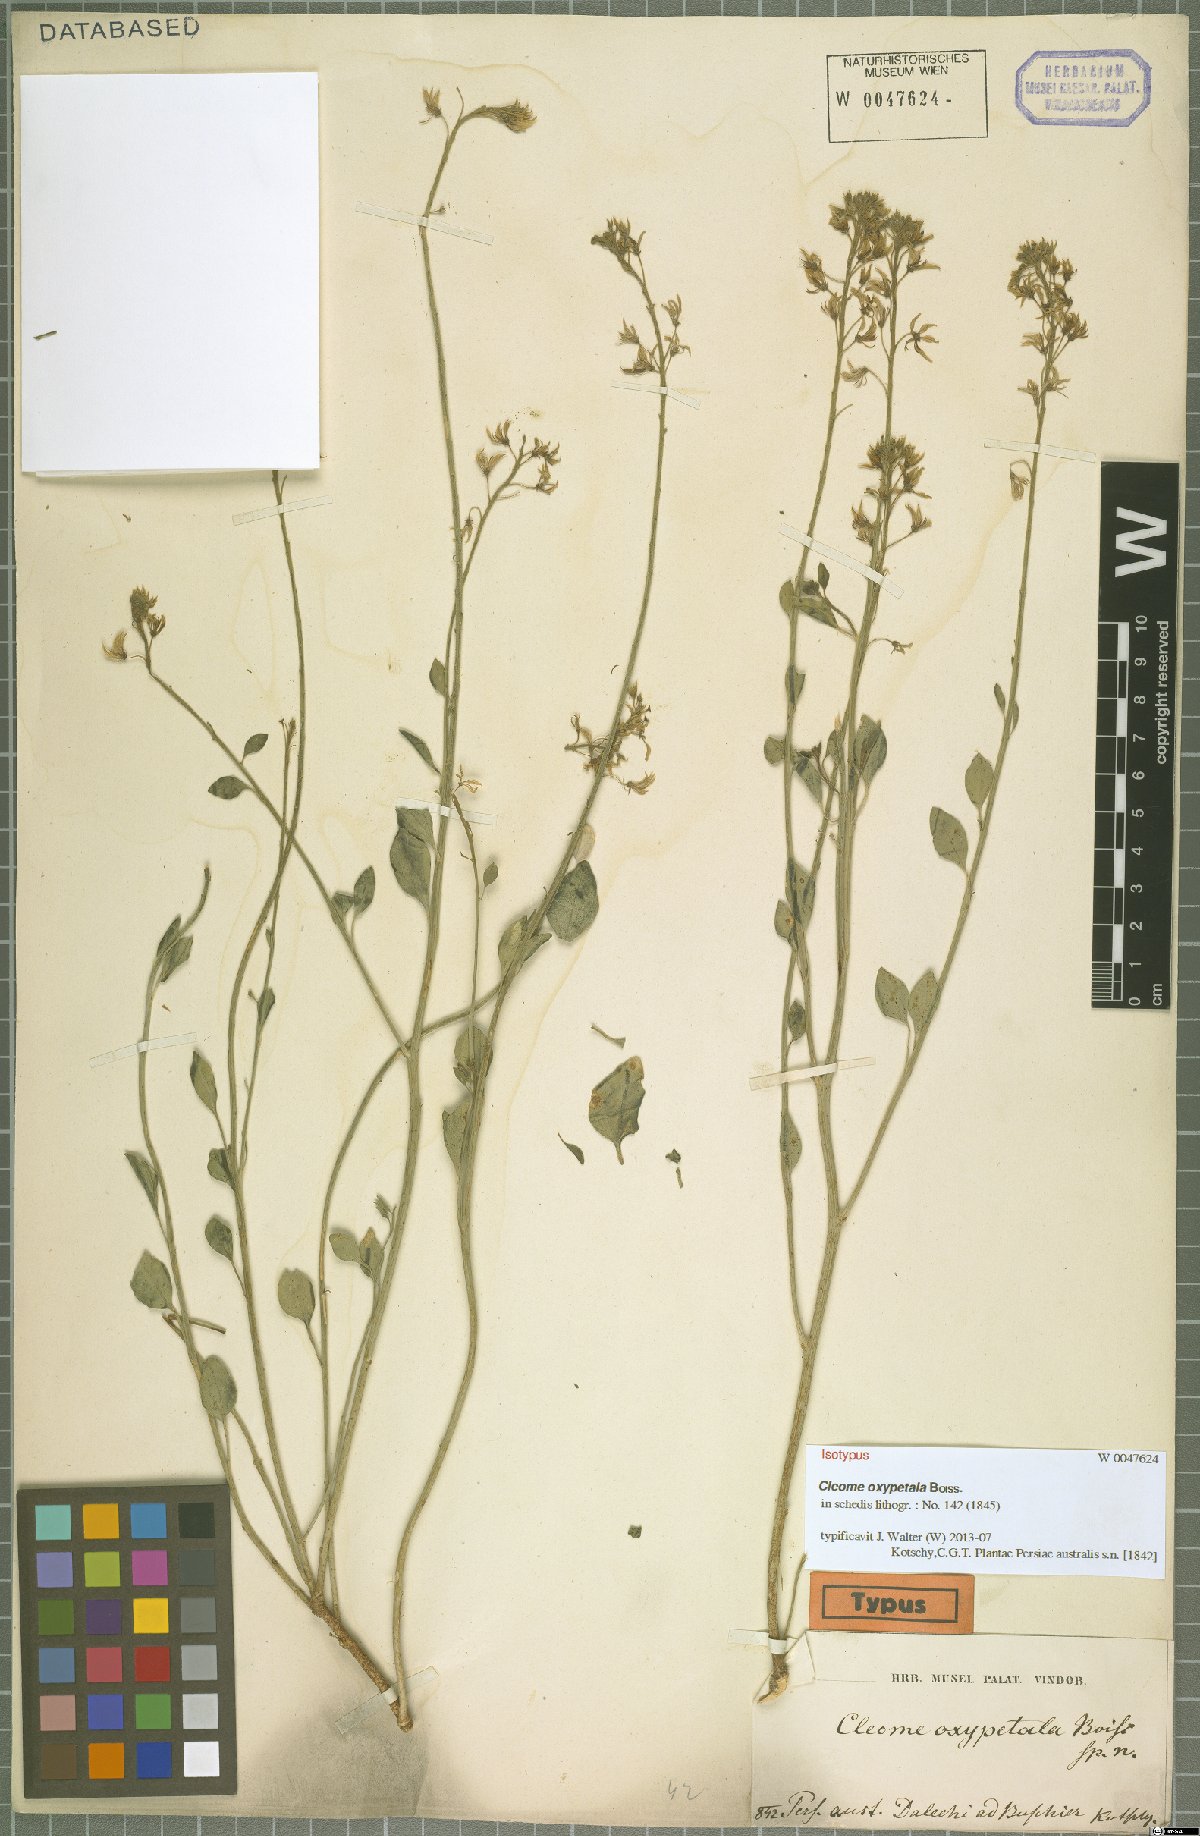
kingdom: Plantae
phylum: Tracheophyta
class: Magnoliopsida
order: Brassicales
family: Cleomaceae
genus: Cleome
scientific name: Cleome oxypetala
